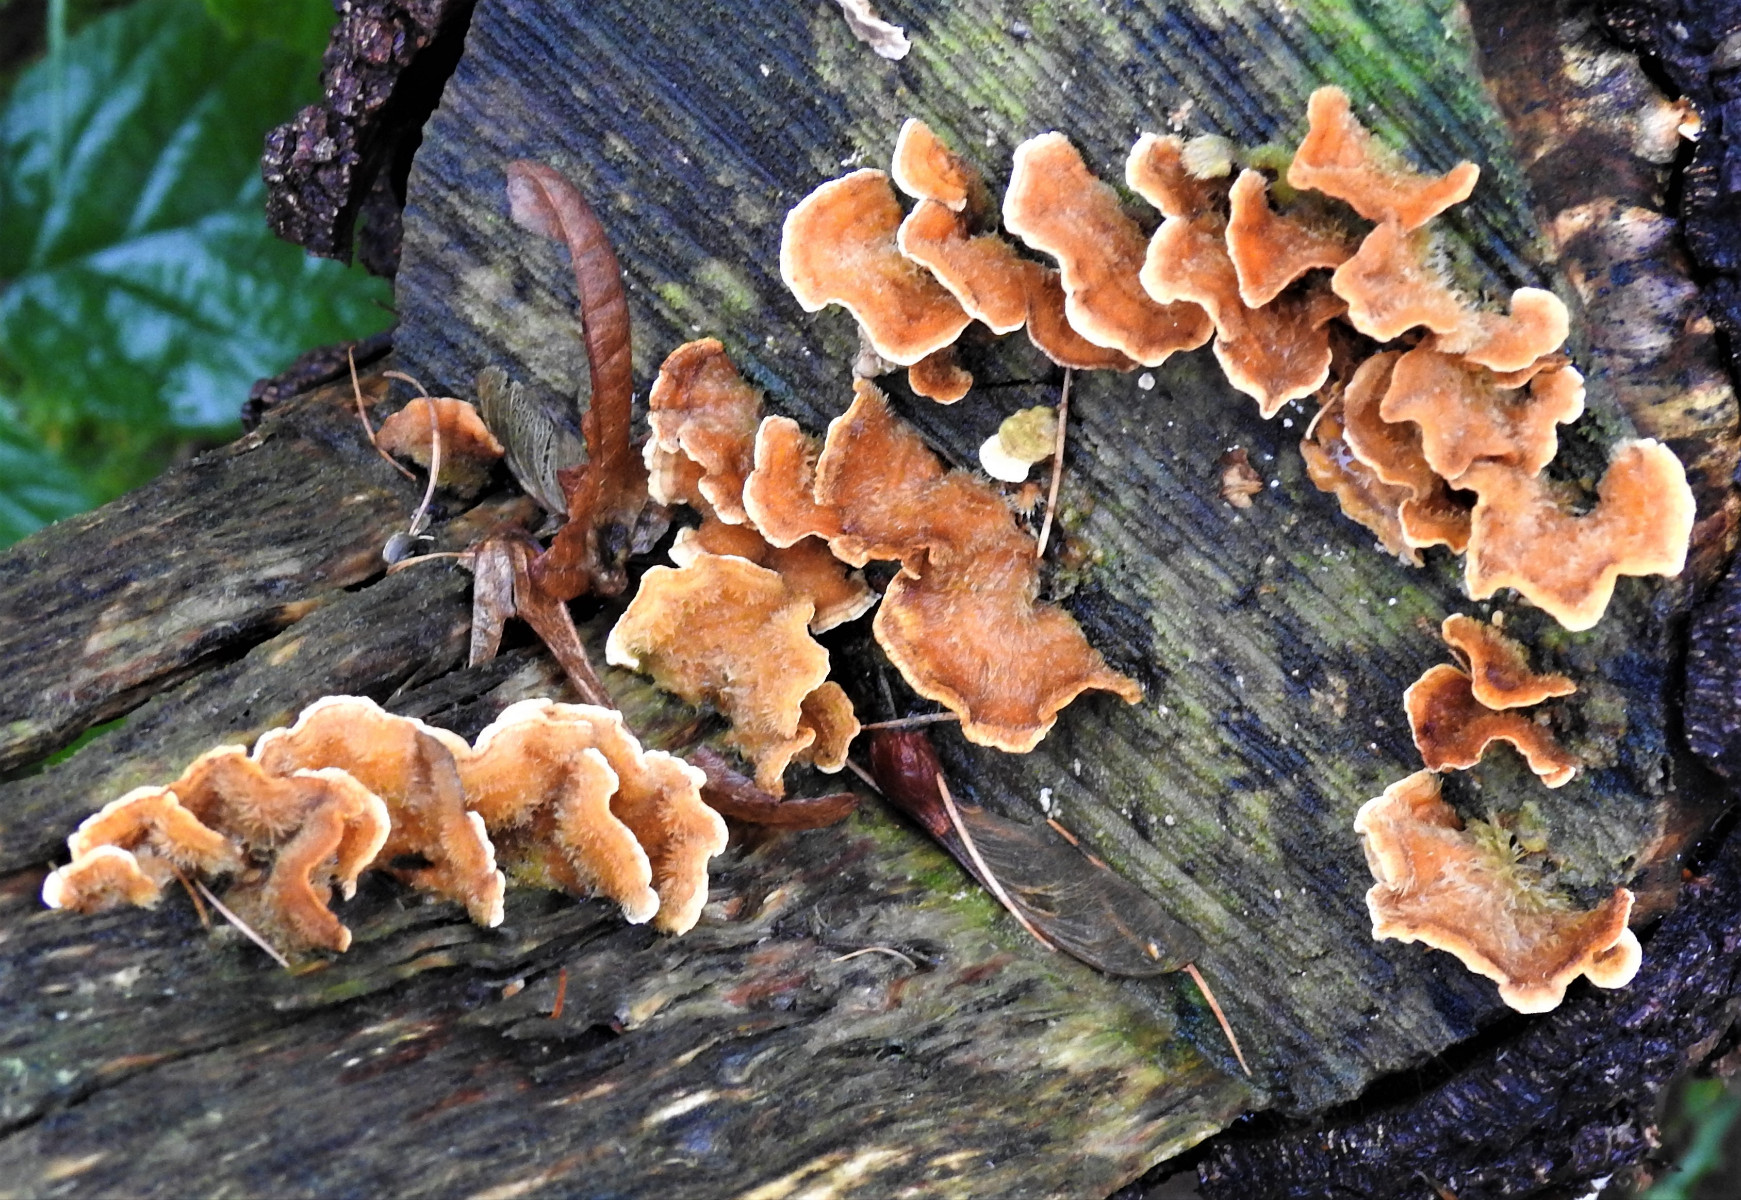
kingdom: Fungi
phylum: Basidiomycota
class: Agaricomycetes
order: Russulales
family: Stereaceae
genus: Stereum
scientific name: Stereum hirsutum
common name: håret lædersvamp
